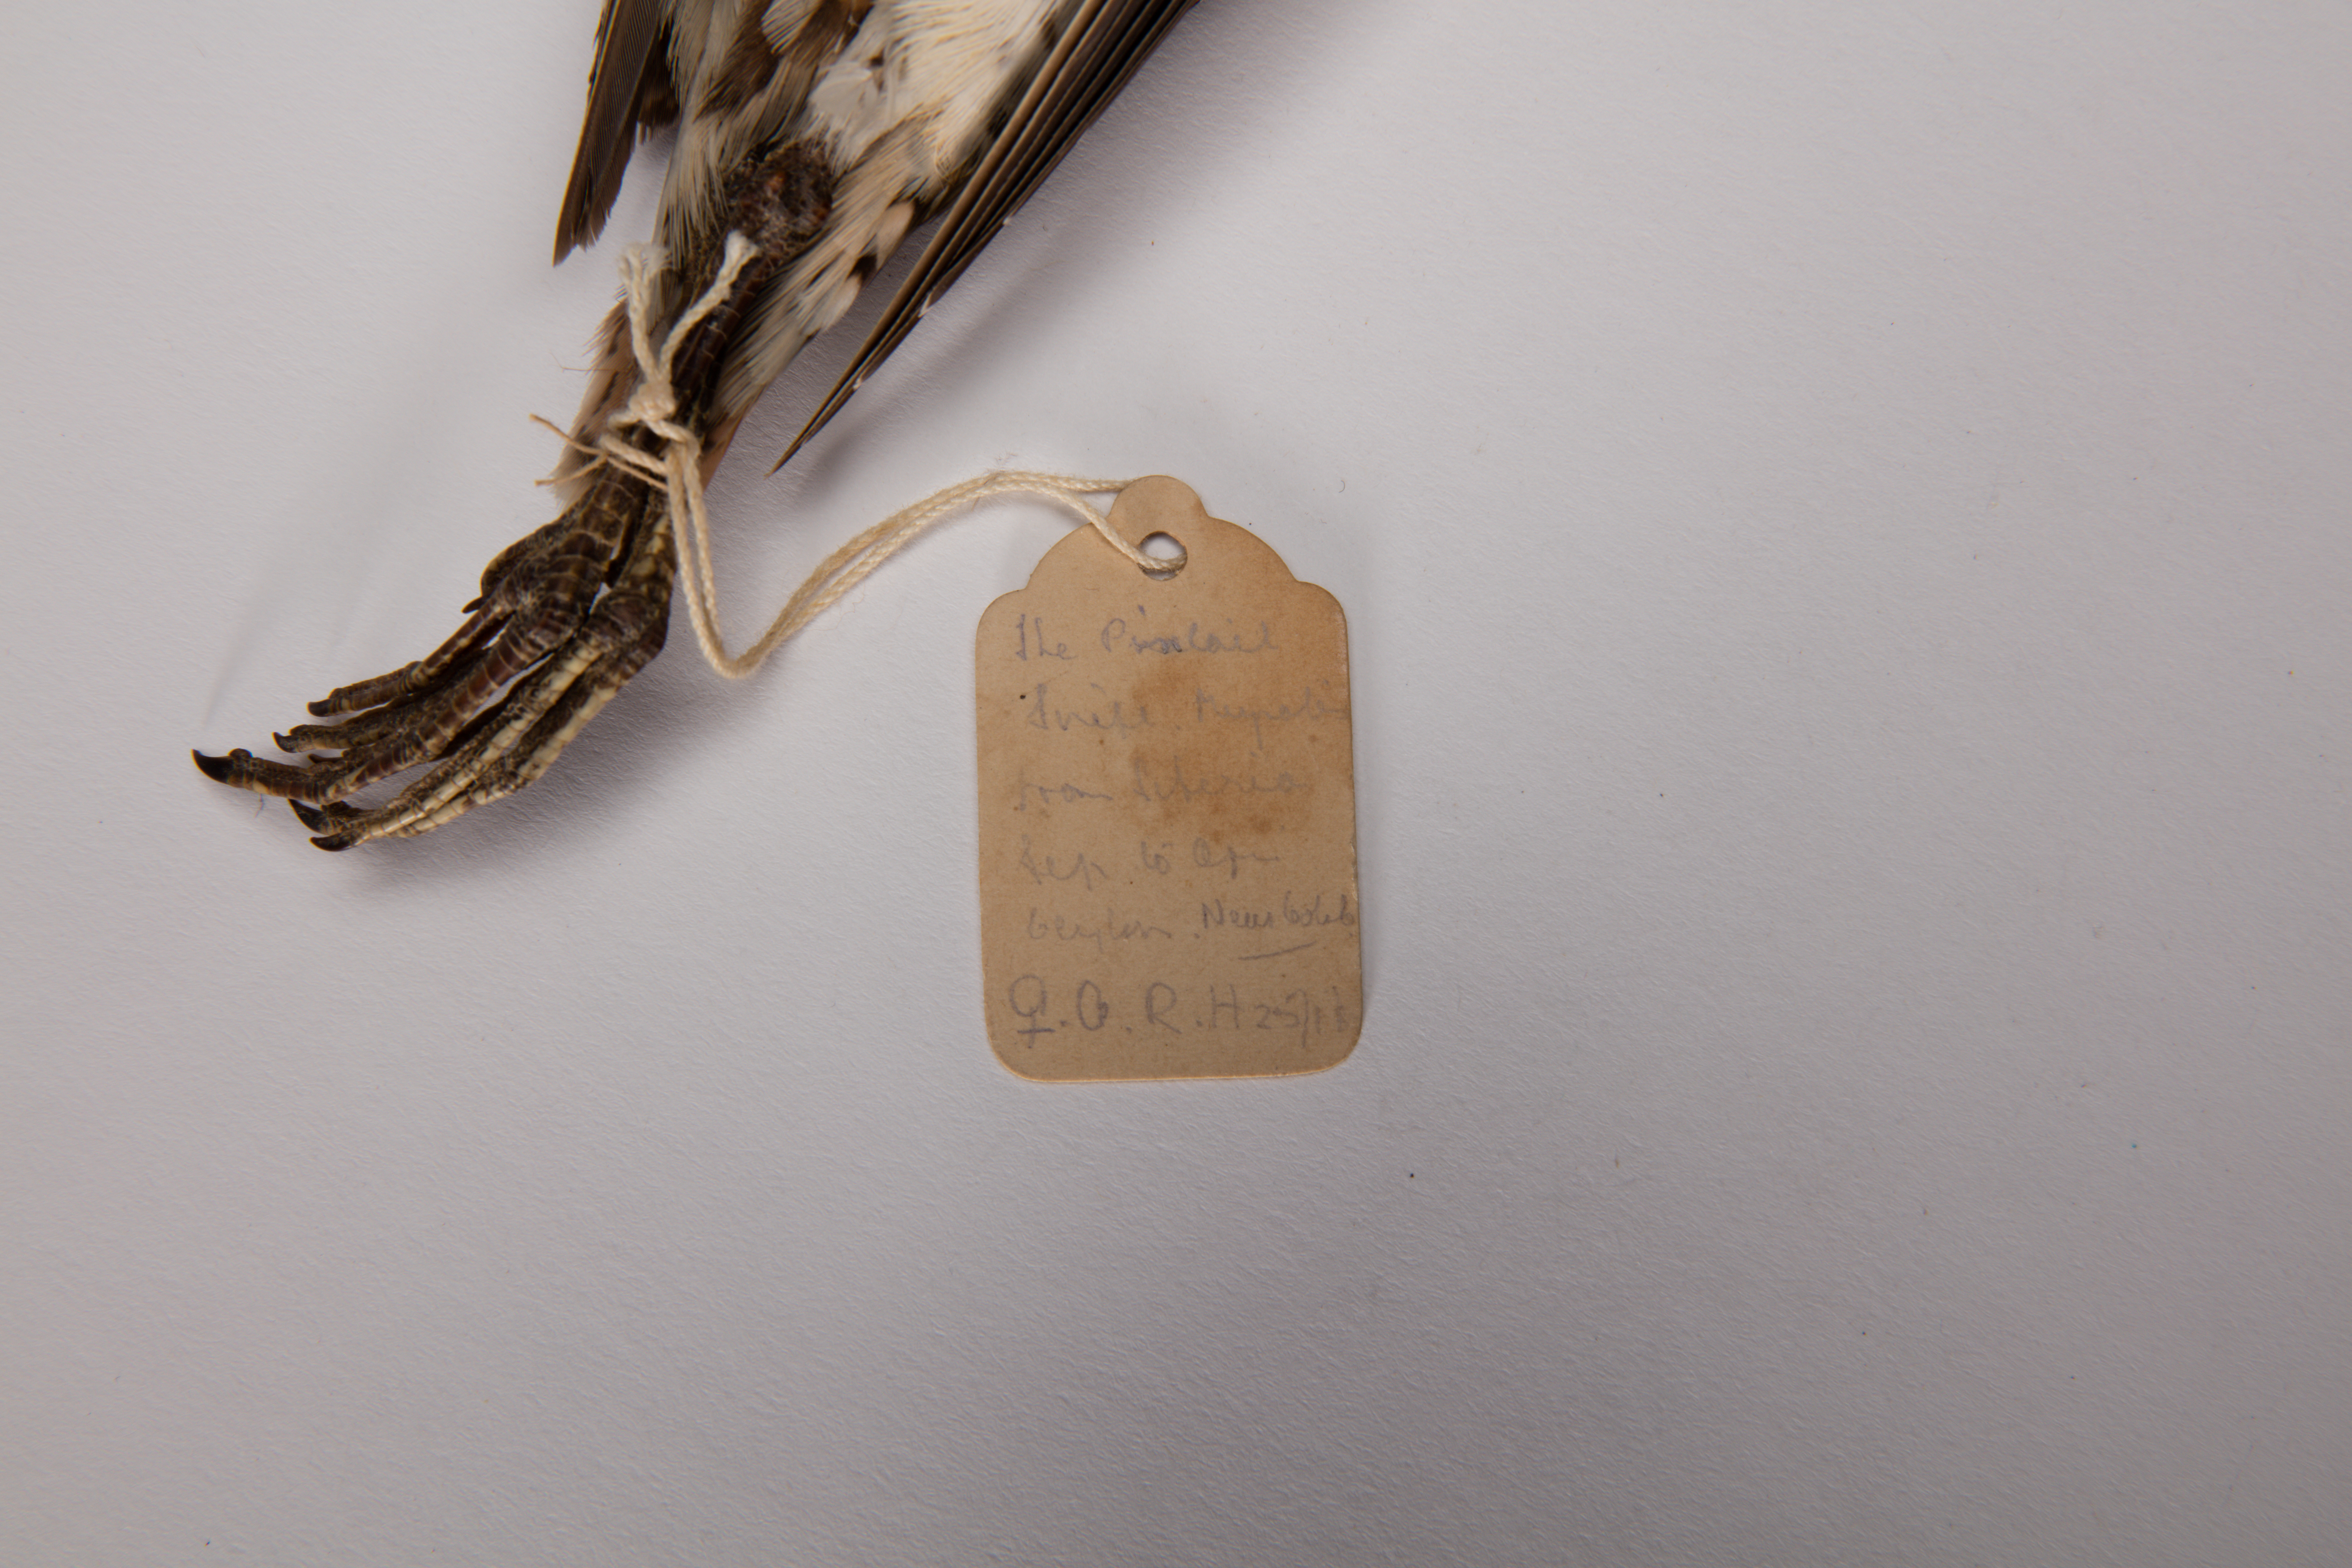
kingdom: Animalia
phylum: Chordata
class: Aves
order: Charadriiformes
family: Scolopacidae
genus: Gallinago
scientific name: Gallinago stenura
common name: Pin-tailed snipe
